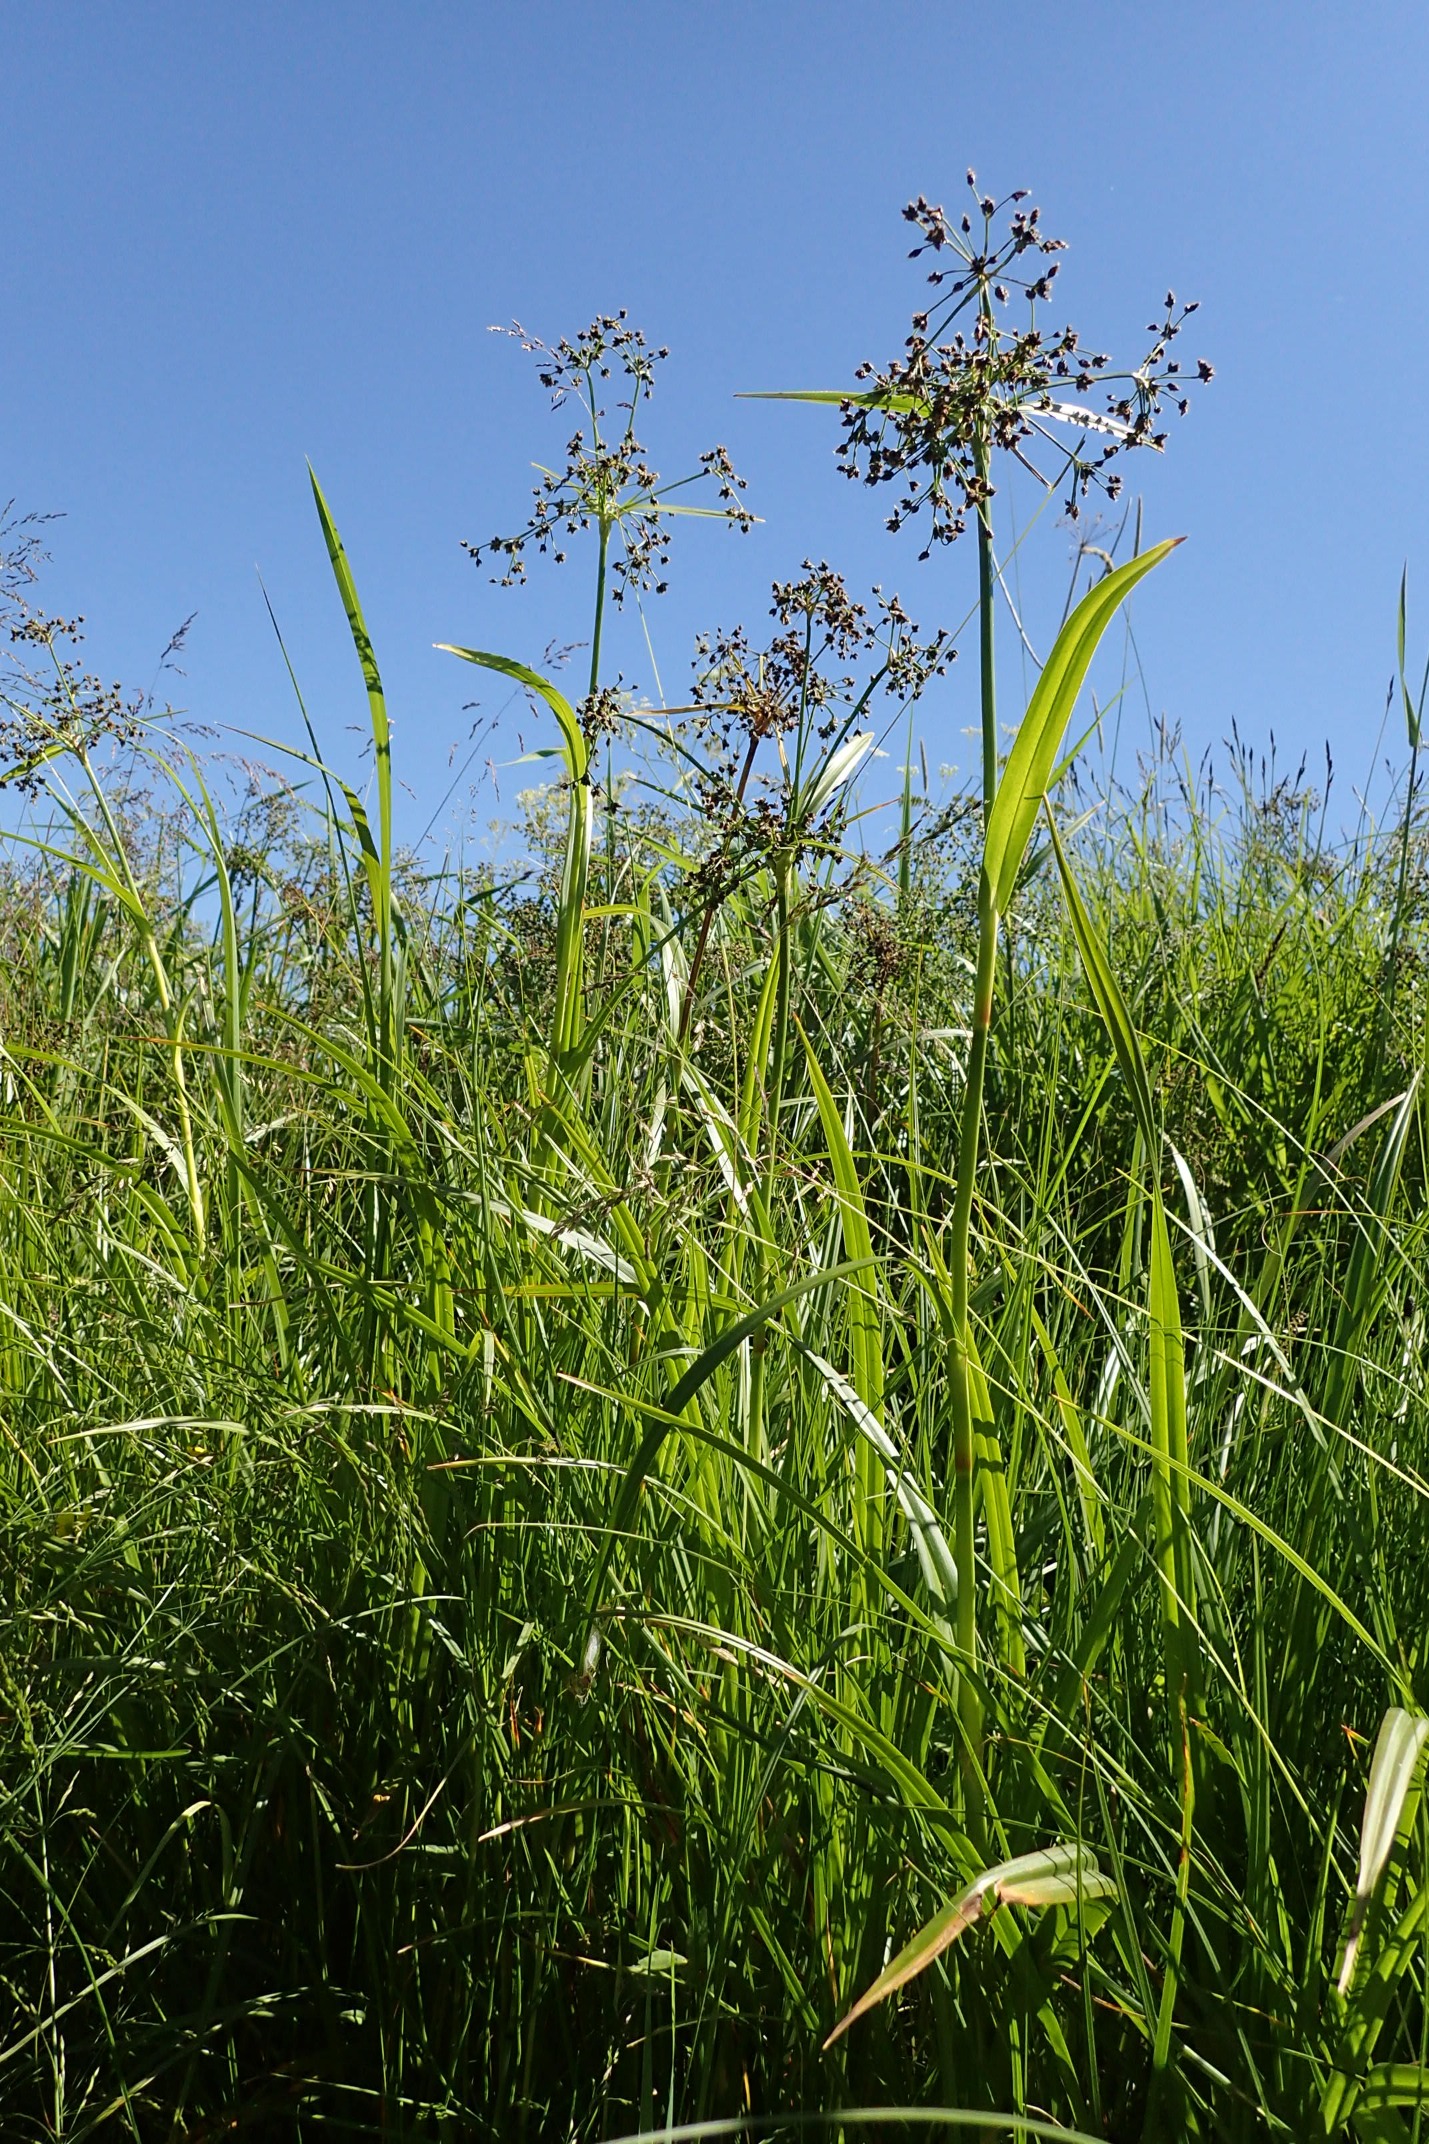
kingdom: Plantae
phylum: Tracheophyta
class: Liliopsida
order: Poales
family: Cyperaceae
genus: Scirpus
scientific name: Scirpus sylvaticus
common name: Skov-kogleaks
